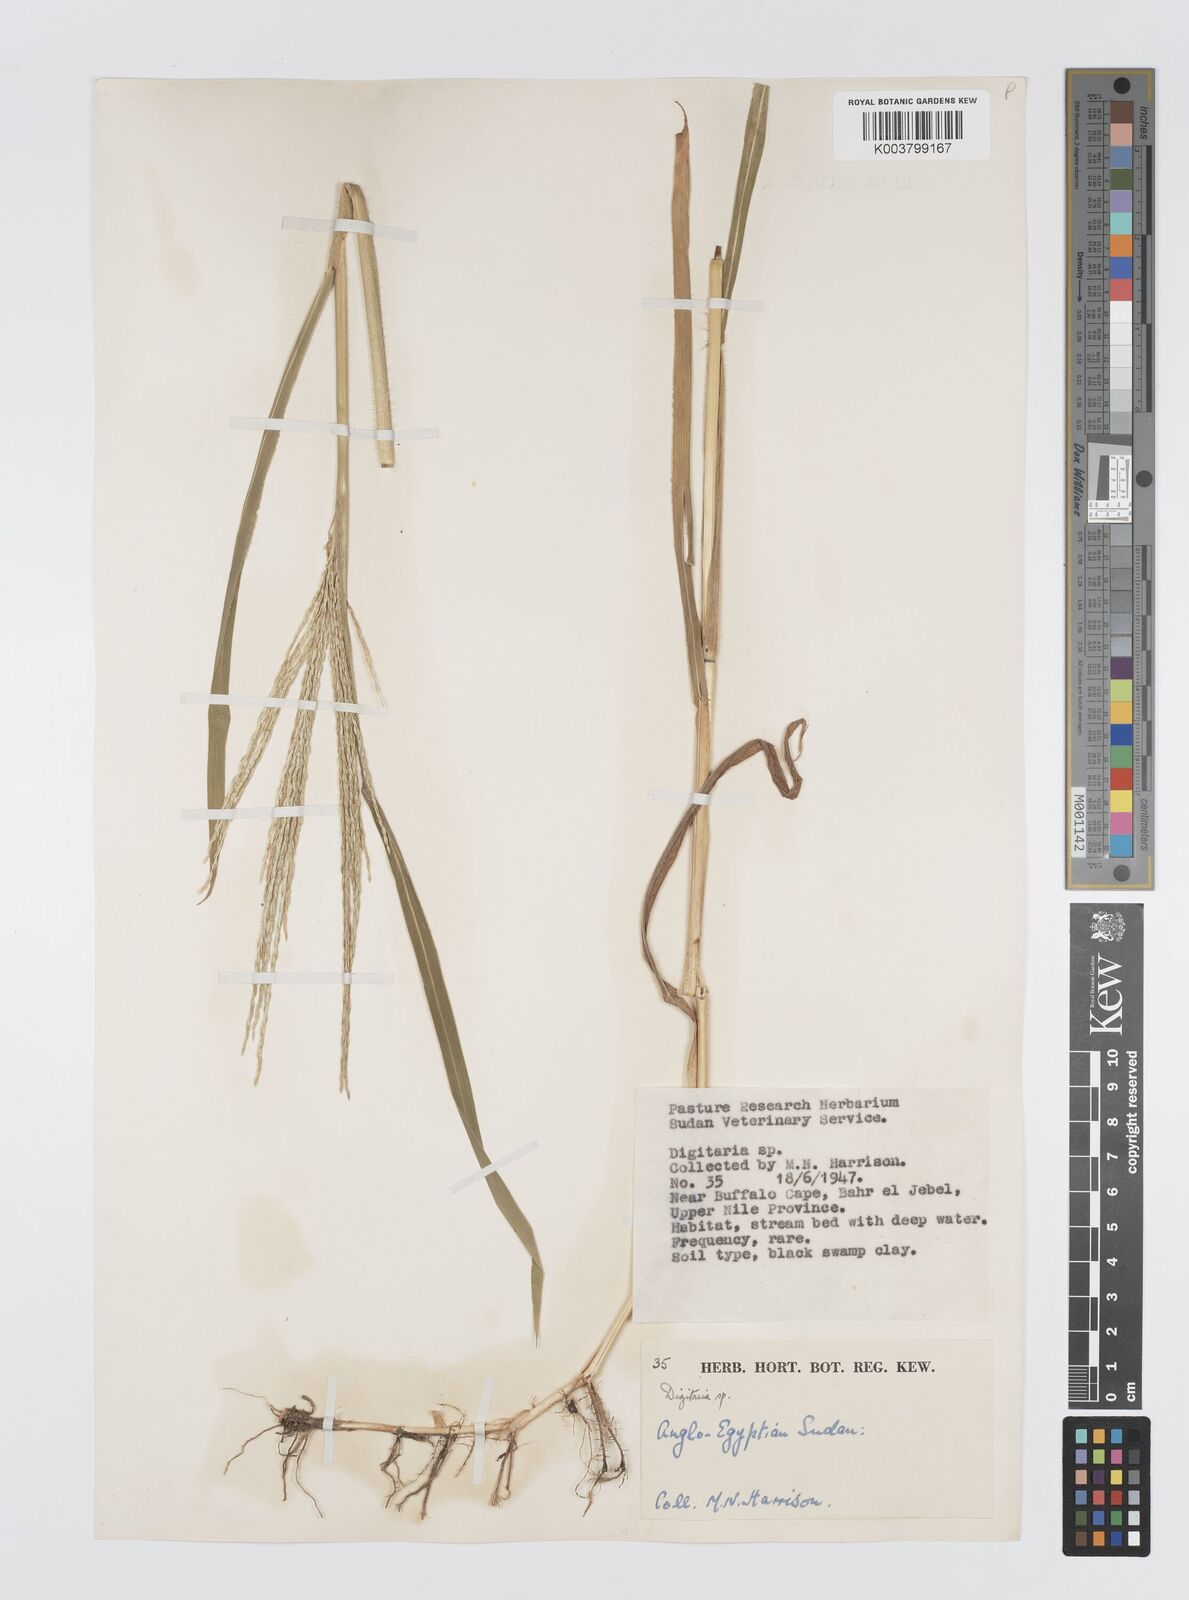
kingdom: Plantae
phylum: Tracheophyta
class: Liliopsida
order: Poales
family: Poaceae
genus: Digitaria
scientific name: Digitaria acuminatissima
